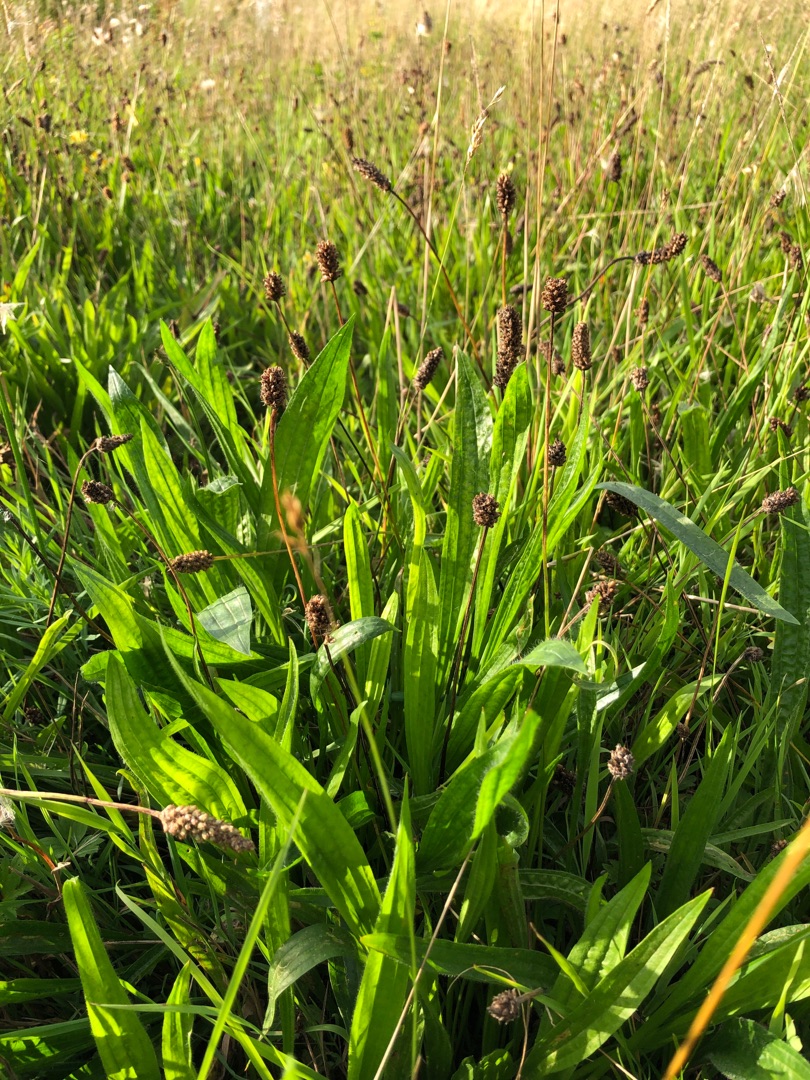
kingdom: Plantae
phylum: Tracheophyta
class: Magnoliopsida
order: Lamiales
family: Plantaginaceae
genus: Plantago
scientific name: Plantago lanceolata
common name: Lancet-vejbred
